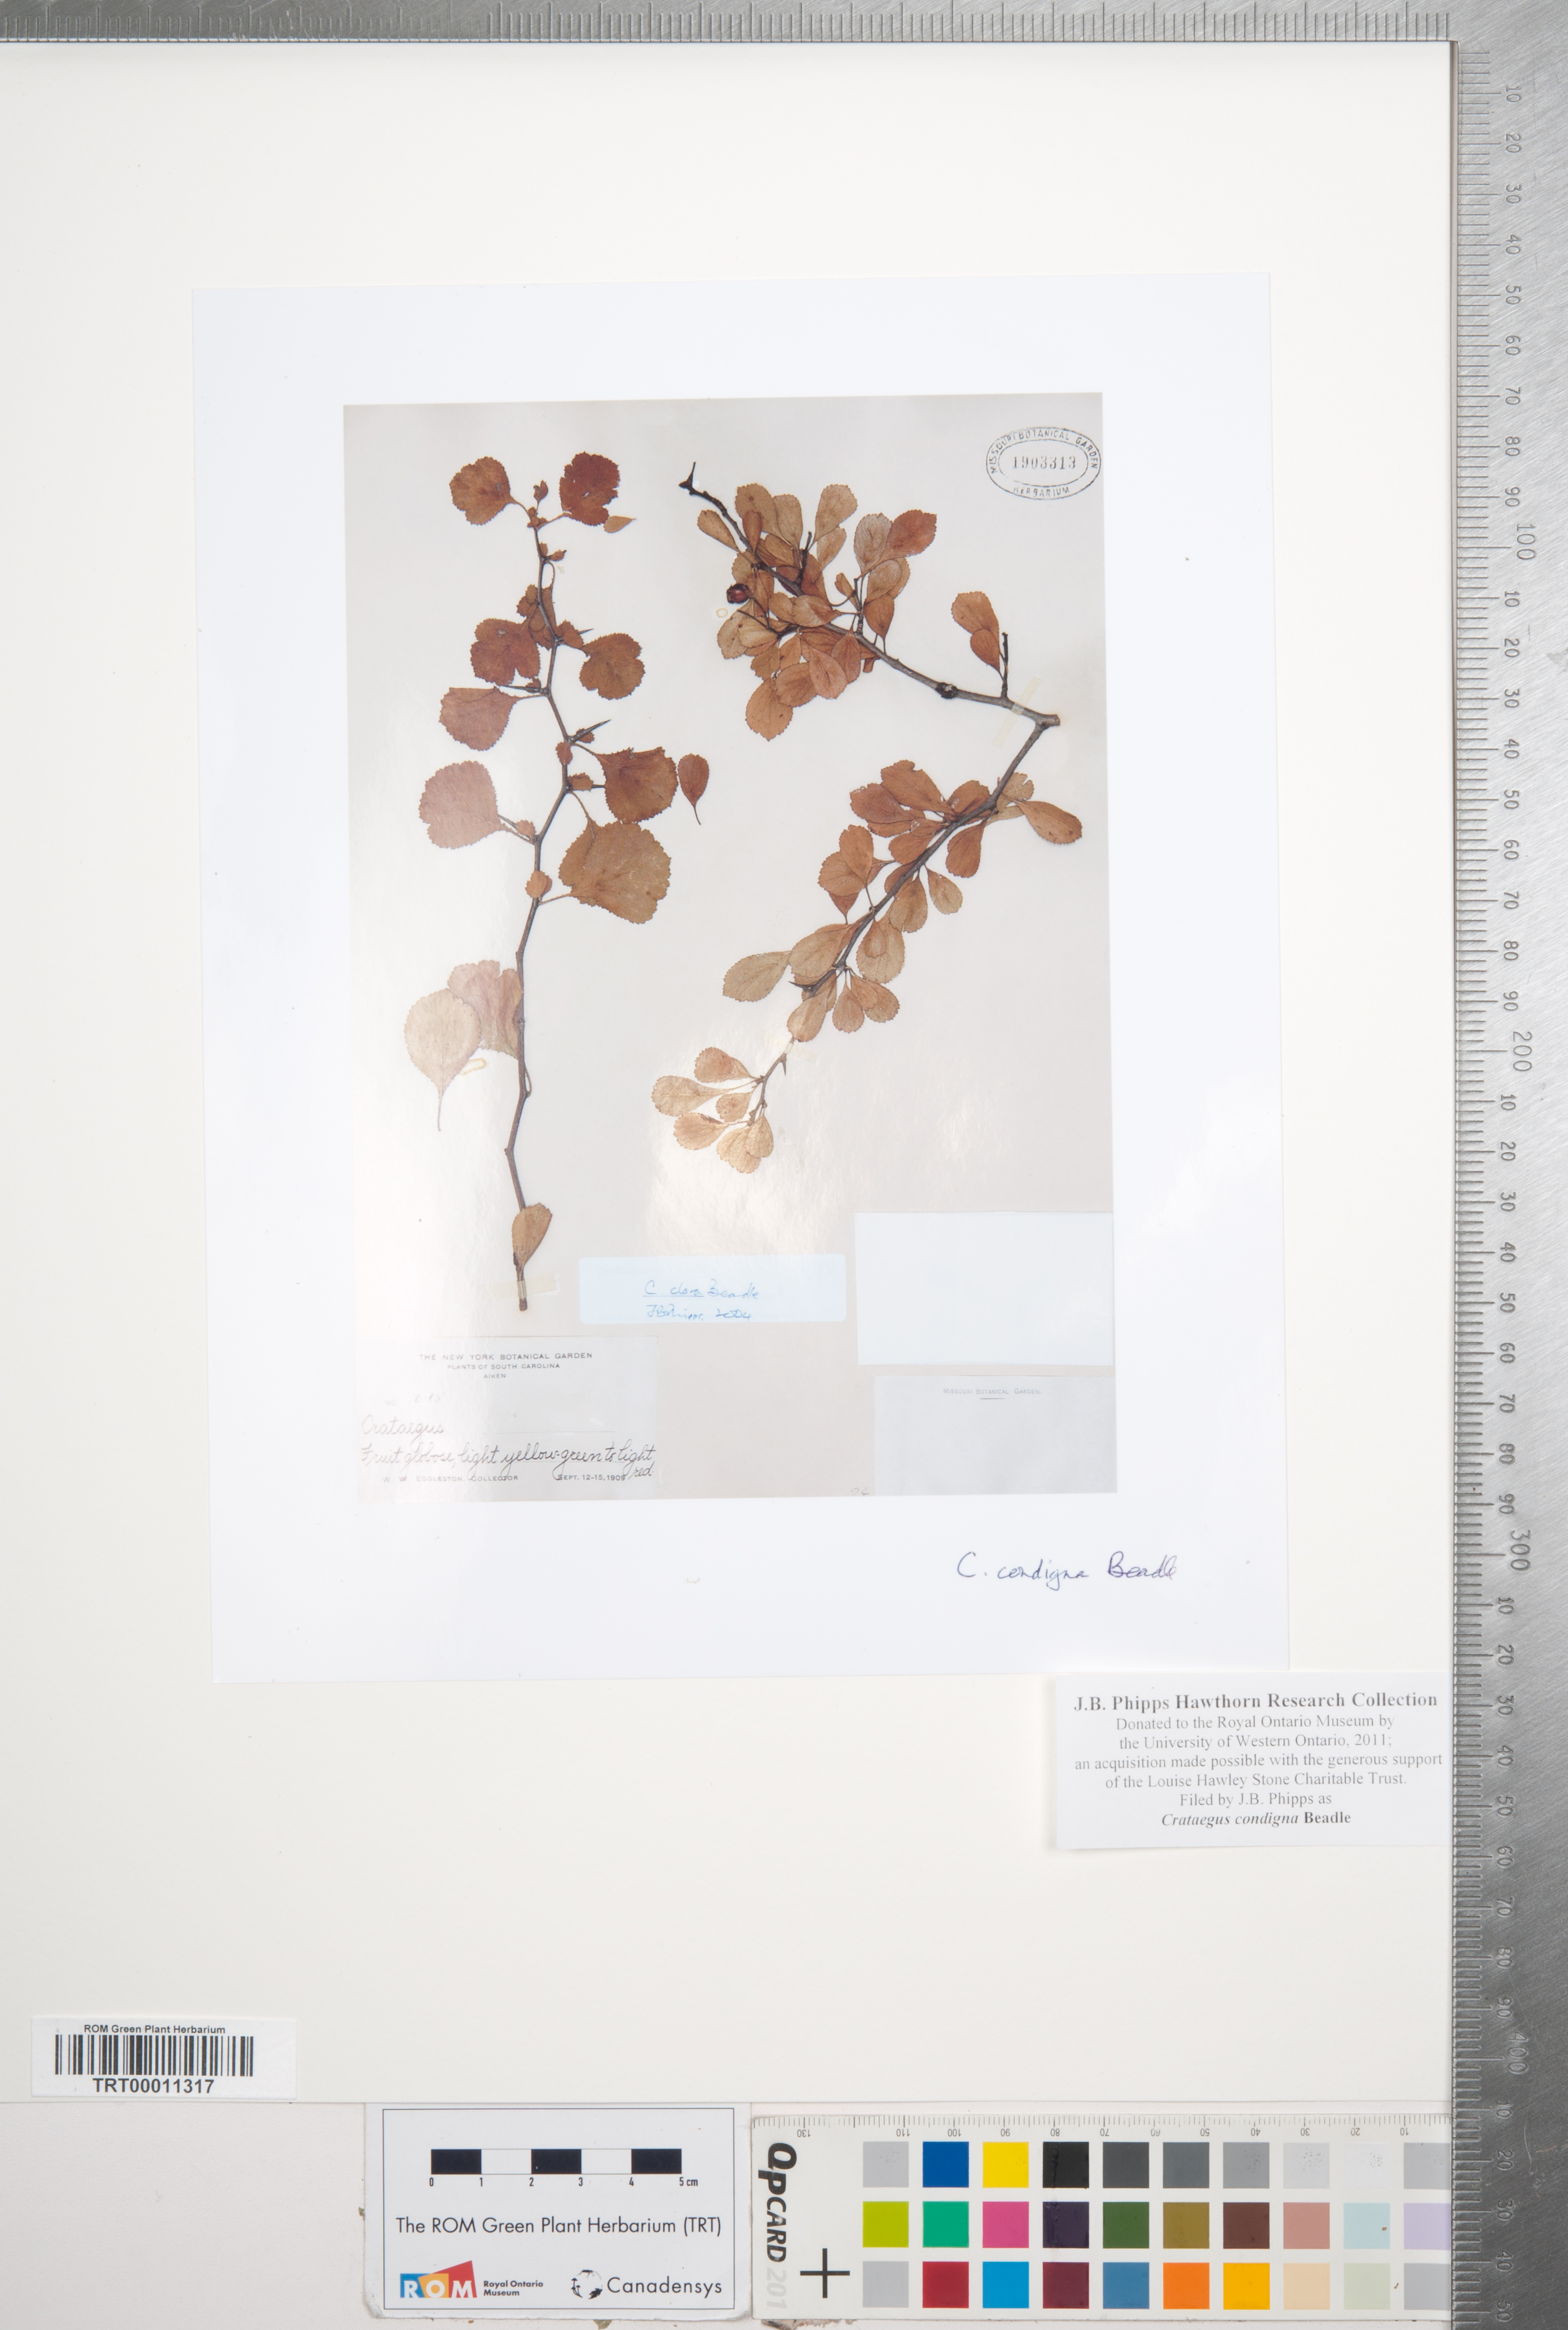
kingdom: Plantae
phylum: Tracheophyta
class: Magnoliopsida
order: Rosales
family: Rosaceae
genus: Crataegus
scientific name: Crataegus condigna
